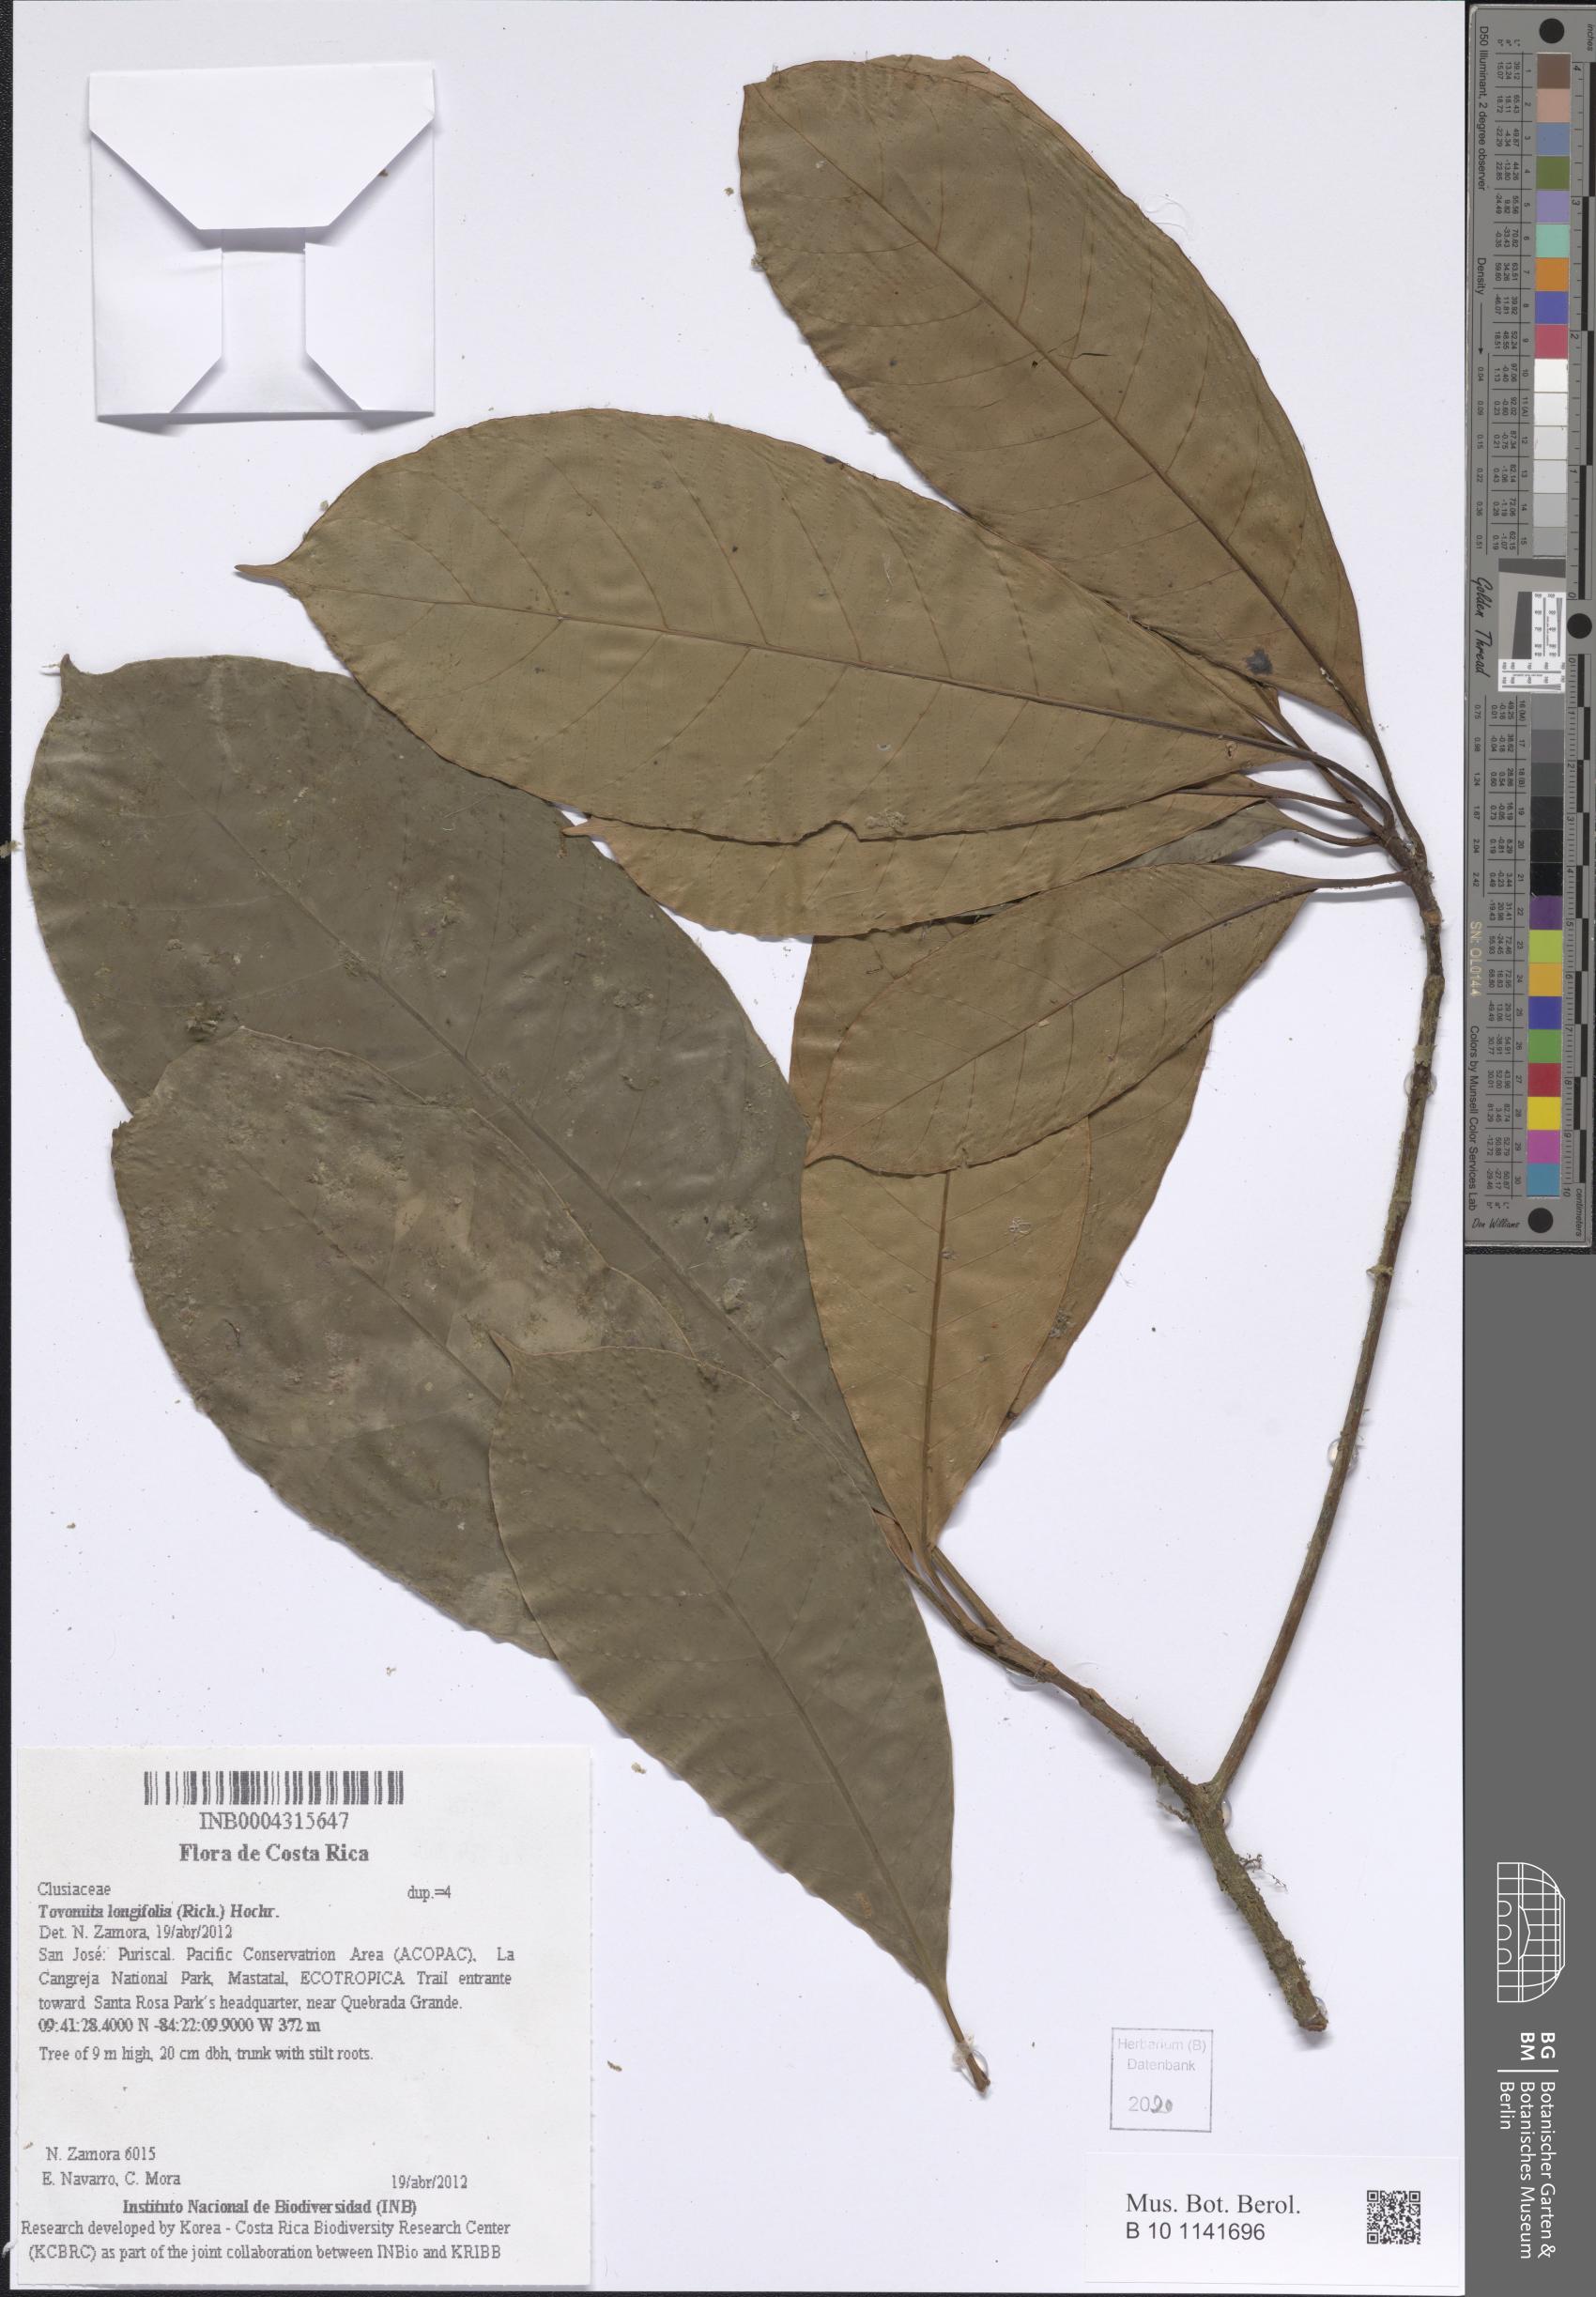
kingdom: Plantae
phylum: Tracheophyta
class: Magnoliopsida
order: Malpighiales
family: Clusiaceae
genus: Tovomita
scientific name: Tovomita longifolia
